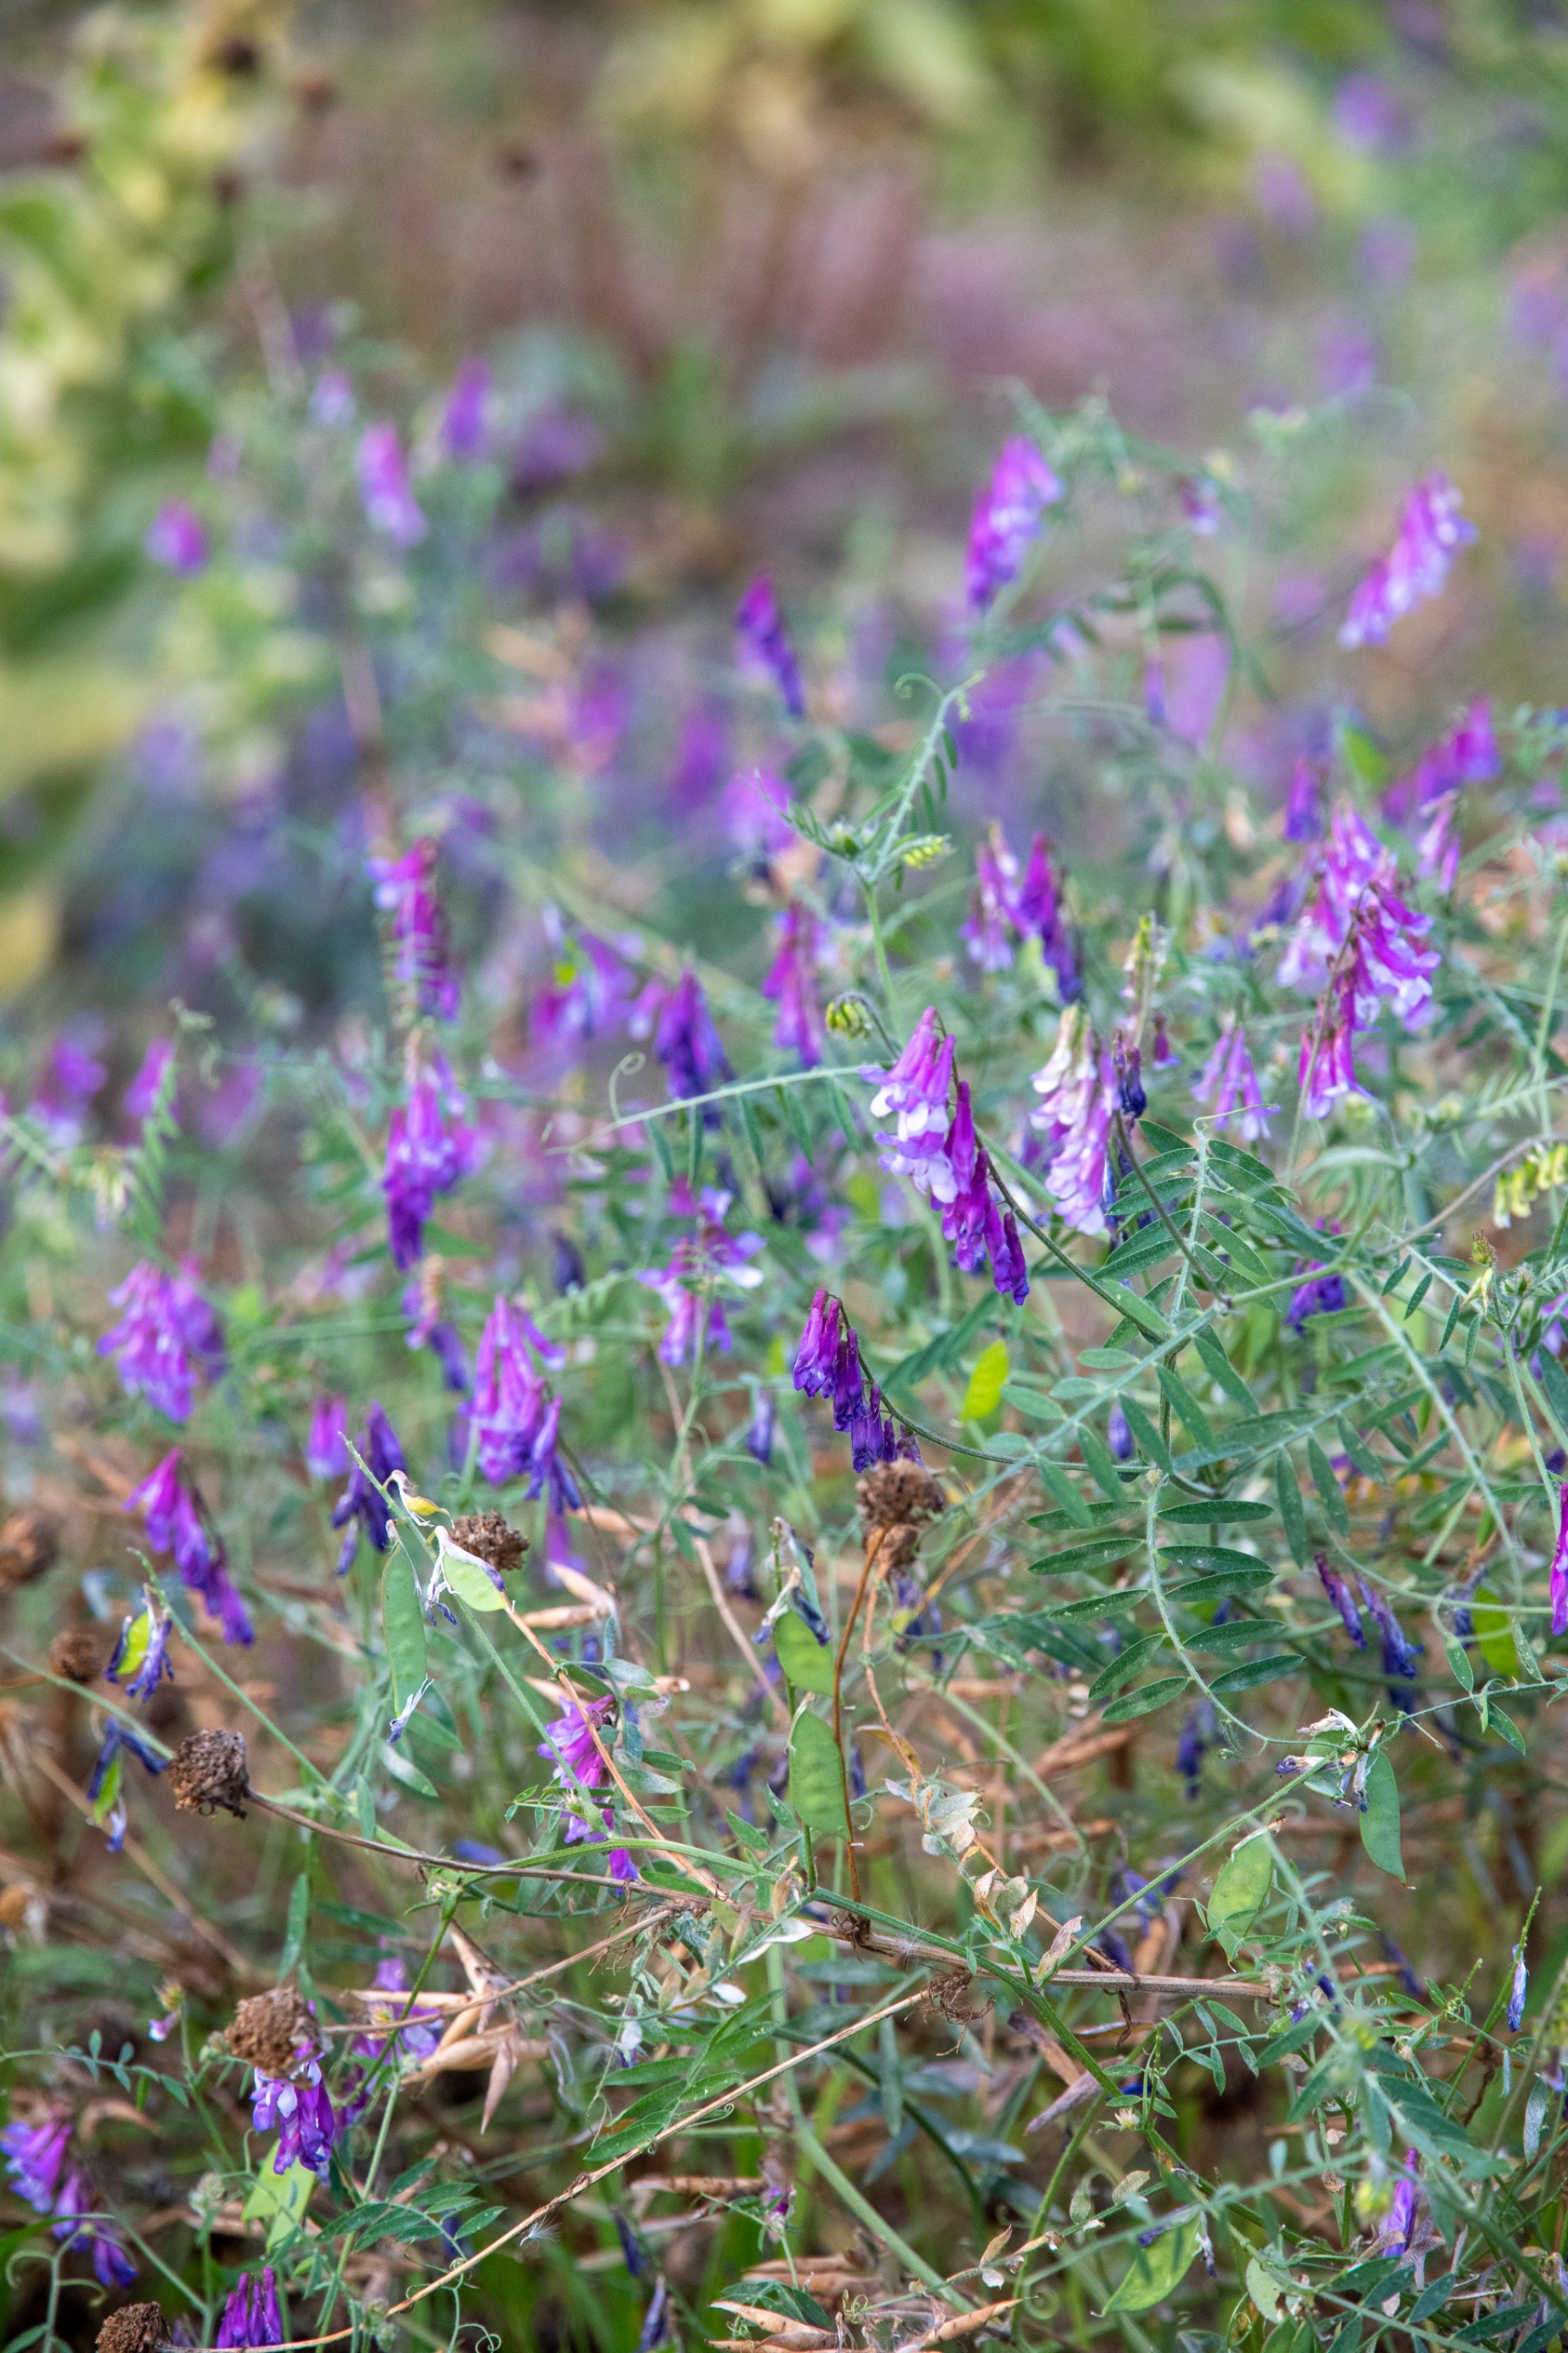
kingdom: Plantae
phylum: Tracheophyta
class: Magnoliopsida
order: Fabales
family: Fabaceae
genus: Vicia
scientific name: Vicia villosa
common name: Sand-vikke
